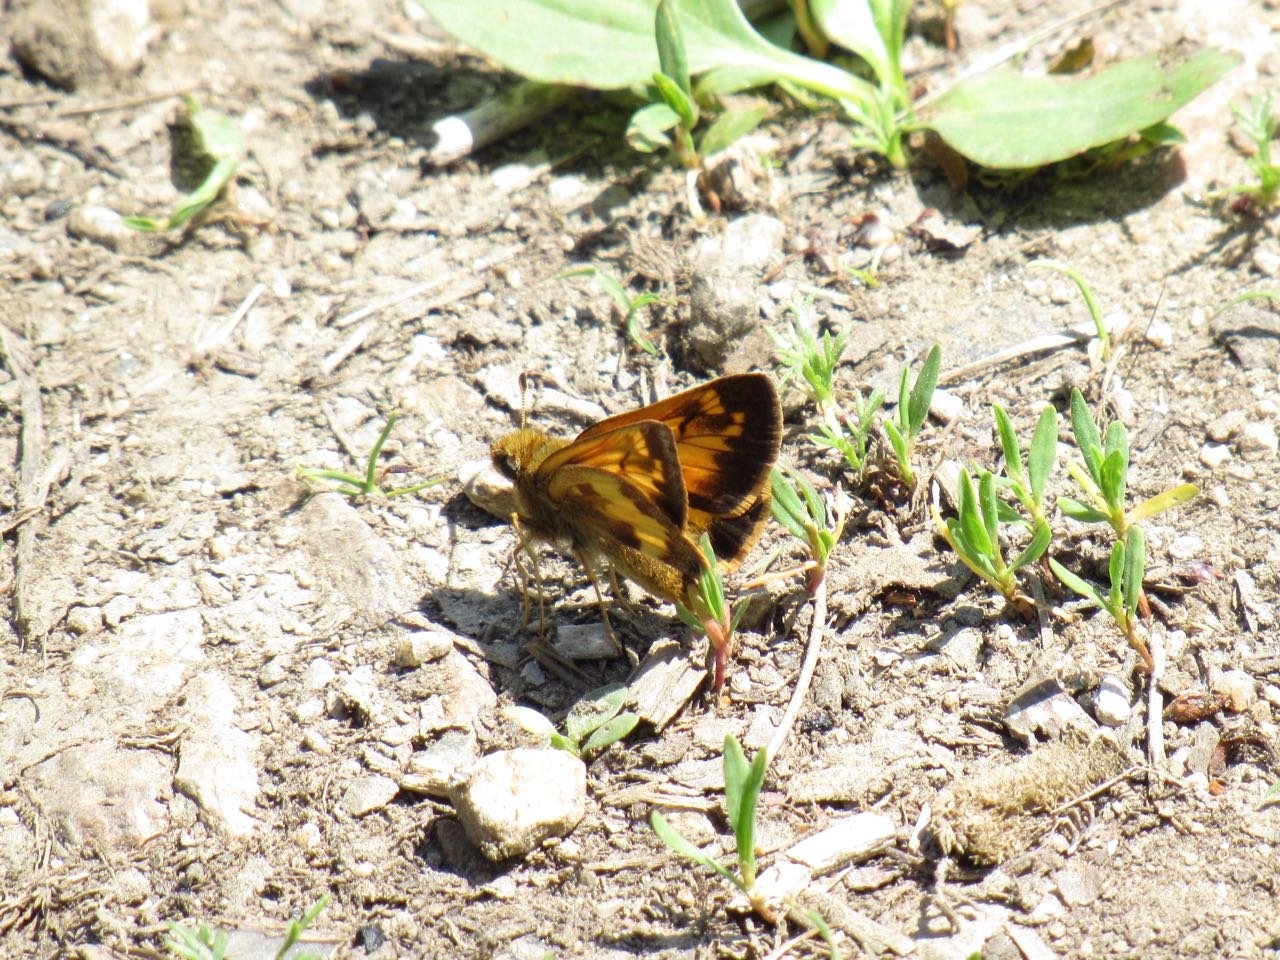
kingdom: Animalia
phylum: Arthropoda
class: Insecta
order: Lepidoptera
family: Hesperiidae
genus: Lon
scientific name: Lon hobomok
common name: Hobomok Skipper
